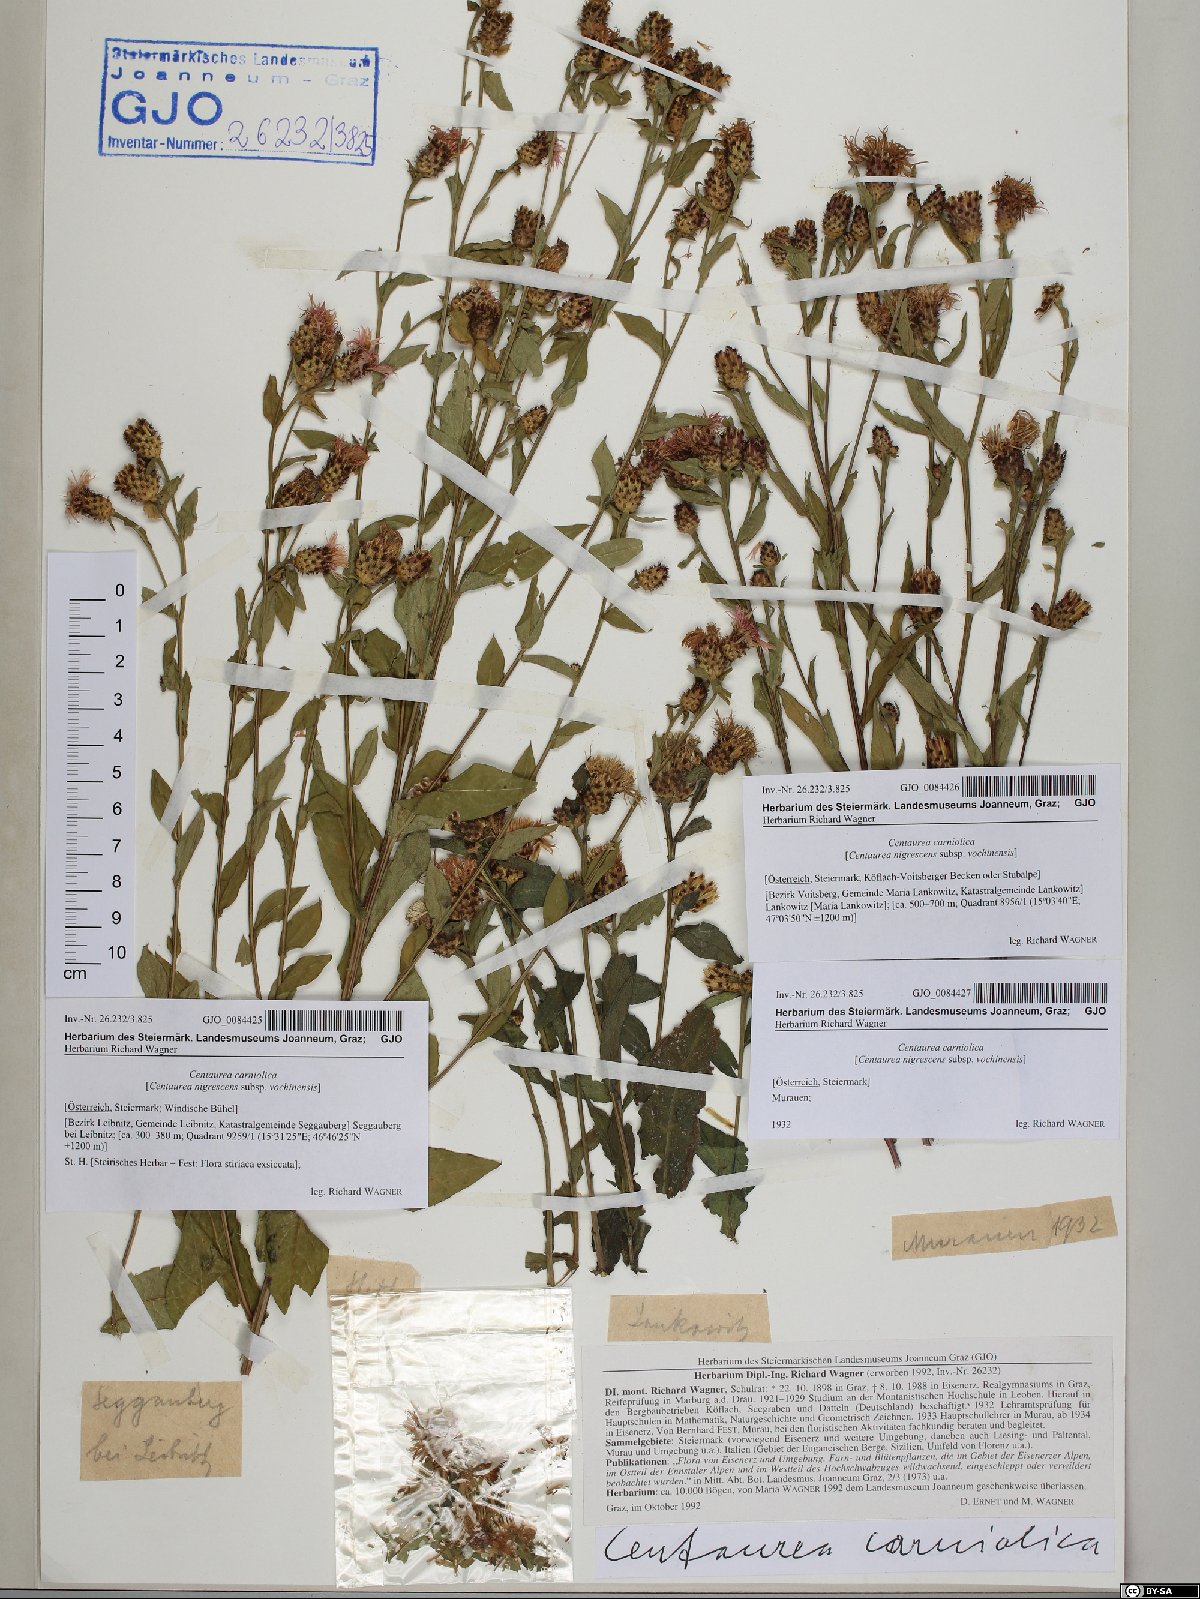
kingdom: Plantae
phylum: Tracheophyta
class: Magnoliopsida
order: Asterales
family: Asteraceae
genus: Centaurea
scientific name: Centaurea carniolica
